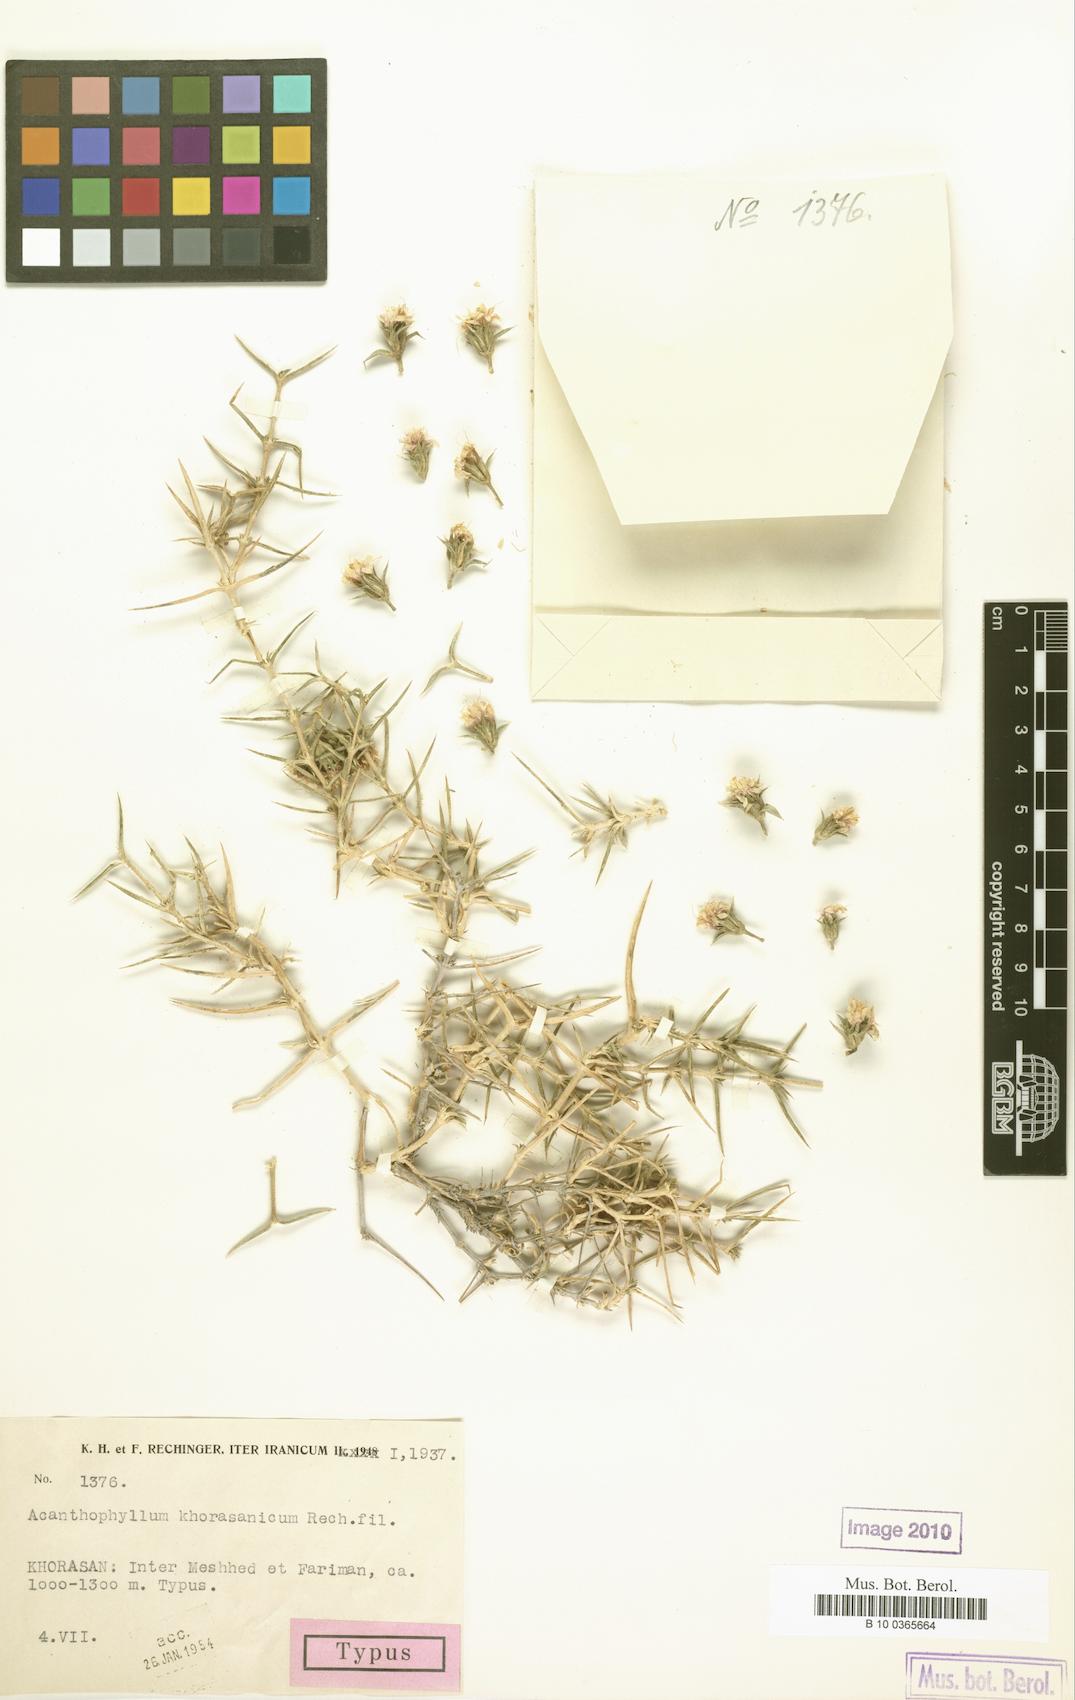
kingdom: Plantae
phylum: Tracheophyta
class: Magnoliopsida
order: Caryophyllales
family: Caryophyllaceae
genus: Acanthophyllum
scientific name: Acanthophyllum korshinskyi
